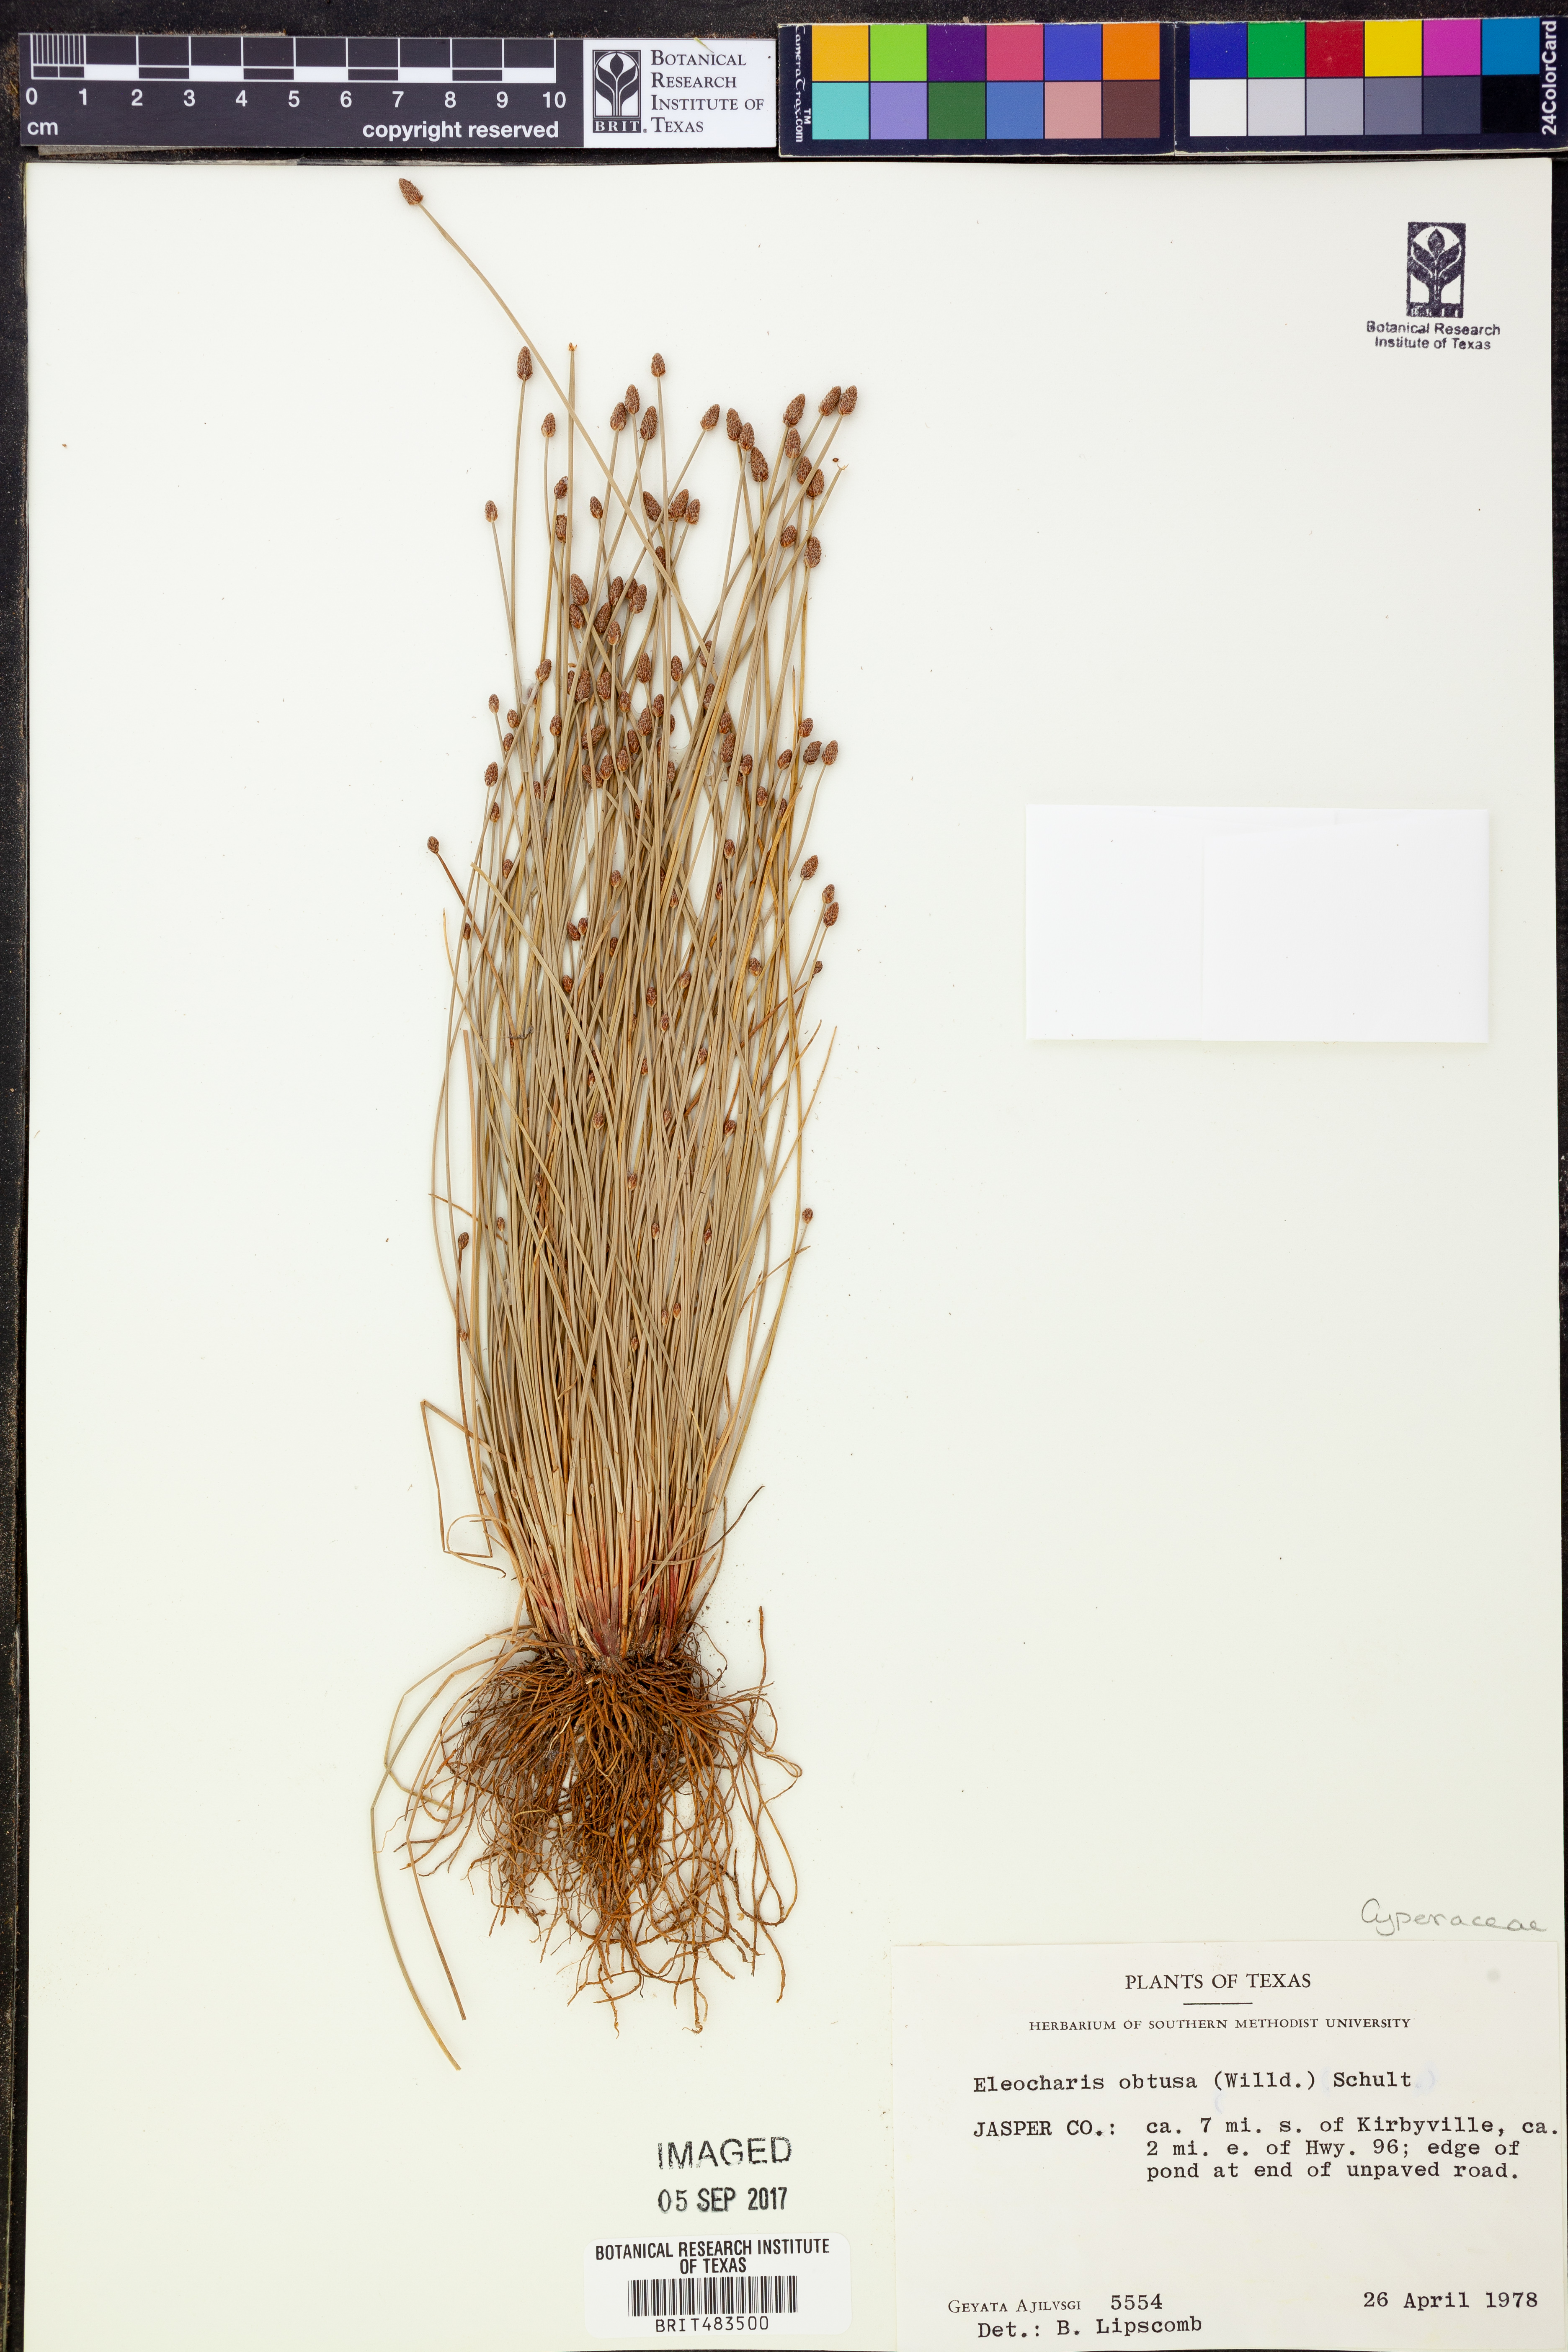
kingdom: Plantae
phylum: Tracheophyta
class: Liliopsida
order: Poales
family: Cyperaceae
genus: Eleocharis
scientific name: Eleocharis obtusa
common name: Blunt spikerush
